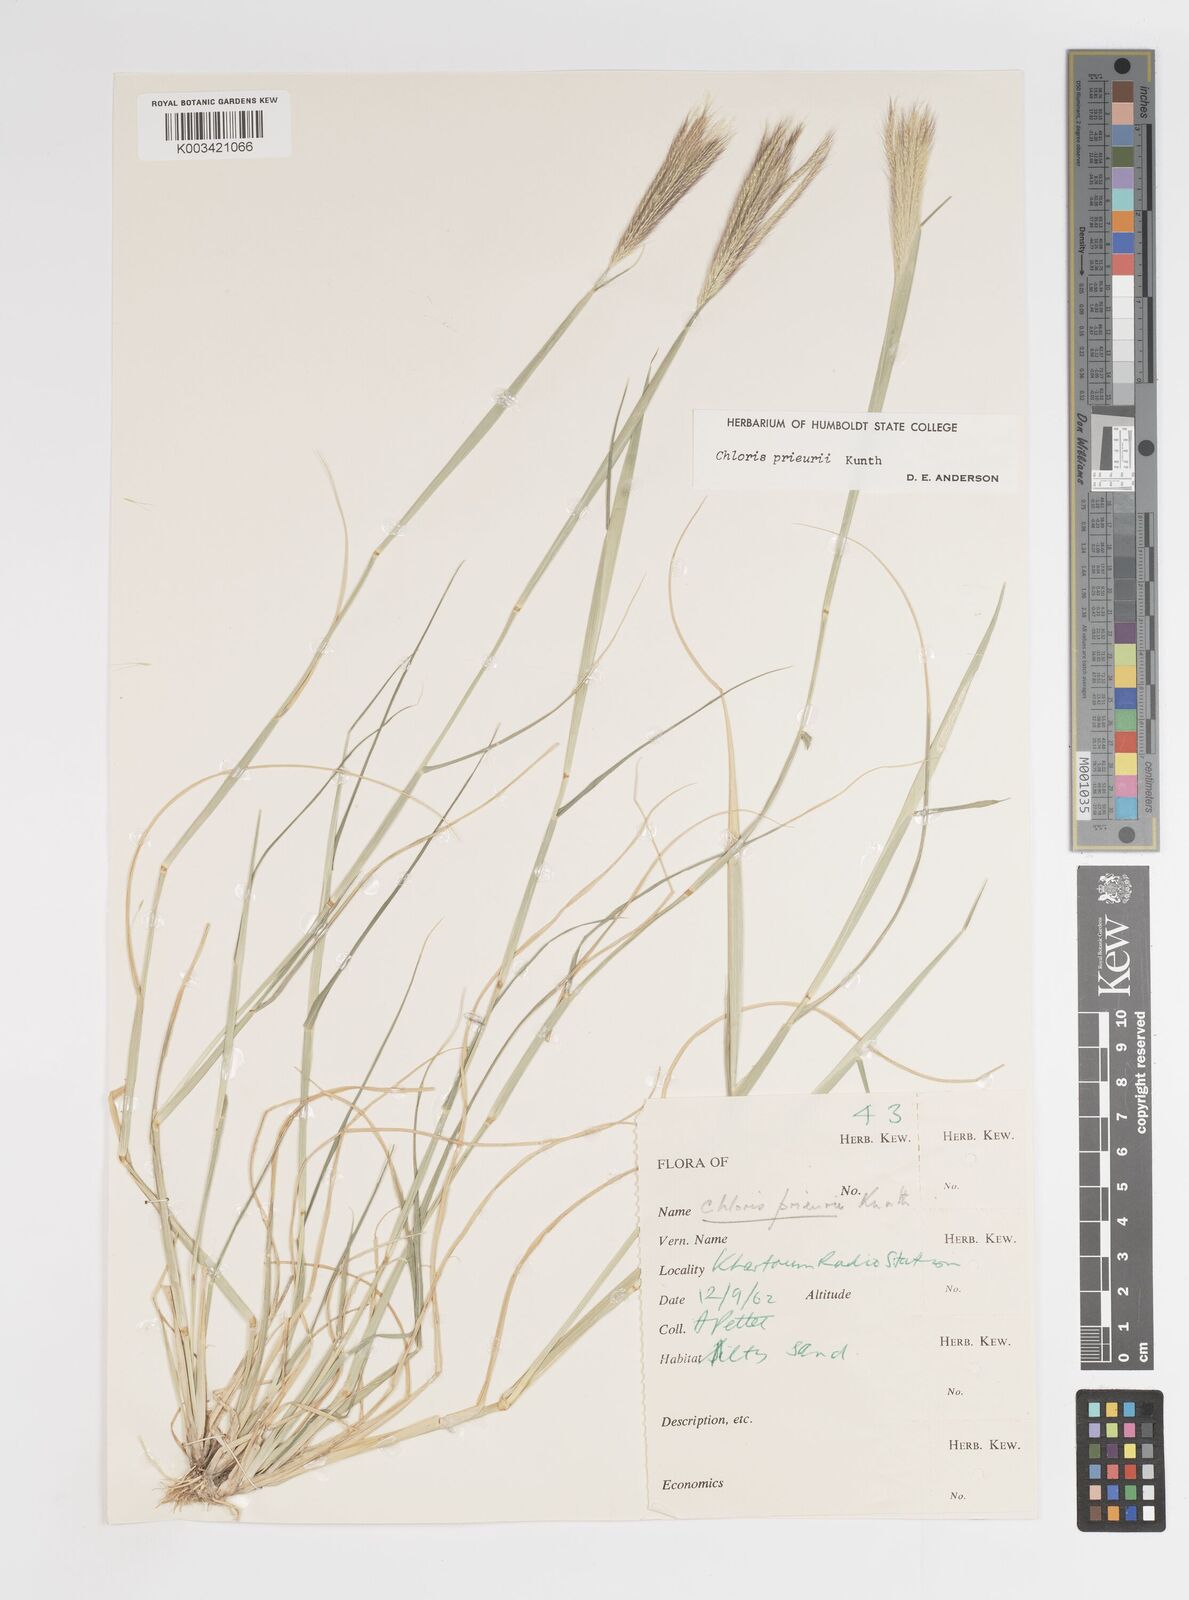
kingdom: Plantae
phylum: Tracheophyta
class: Liliopsida
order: Poales
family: Poaceae
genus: Enteropogon
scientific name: Enteropogon prieurii
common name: Prieur's umbrellagrass
